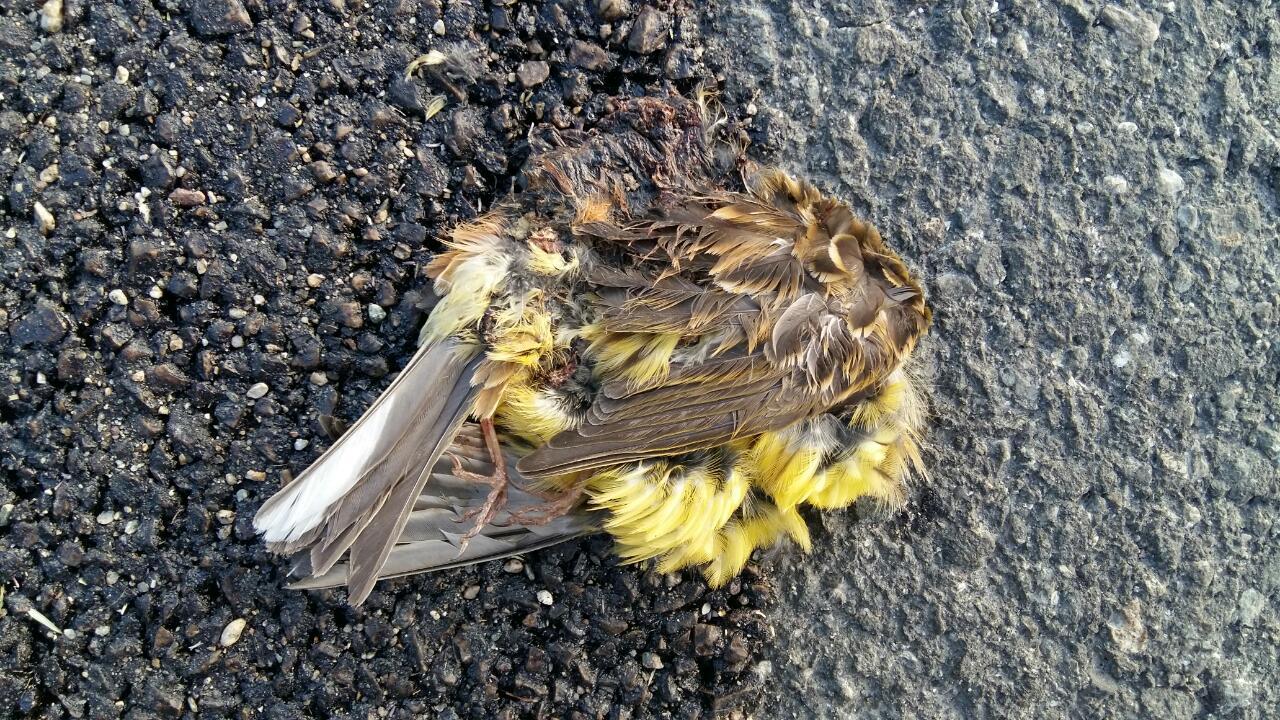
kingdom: Animalia
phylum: Chordata
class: Aves
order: Passeriformes
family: Emberizidae
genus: Emberiza
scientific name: Emberiza citrinella
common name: Yellowhammer
